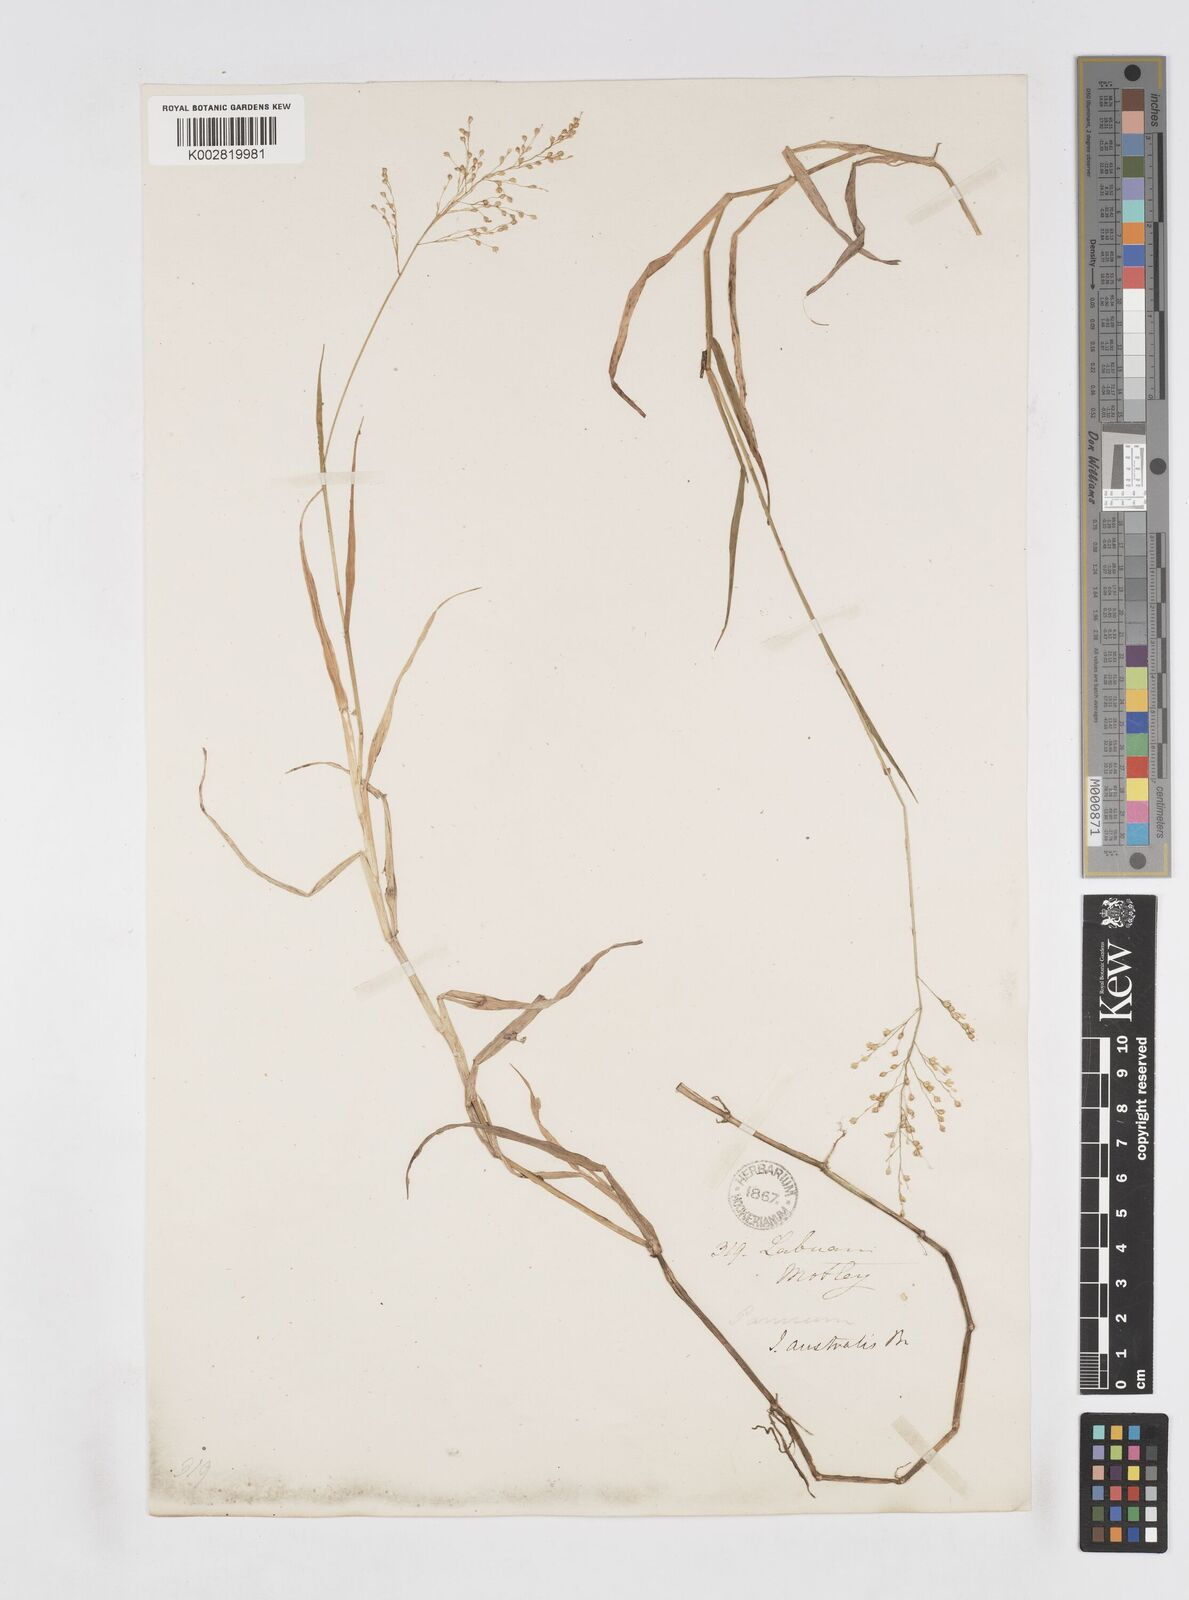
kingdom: Plantae
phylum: Tracheophyta
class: Liliopsida
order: Poales
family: Poaceae
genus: Isachne
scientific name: Isachne globosa
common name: Swamp millet
